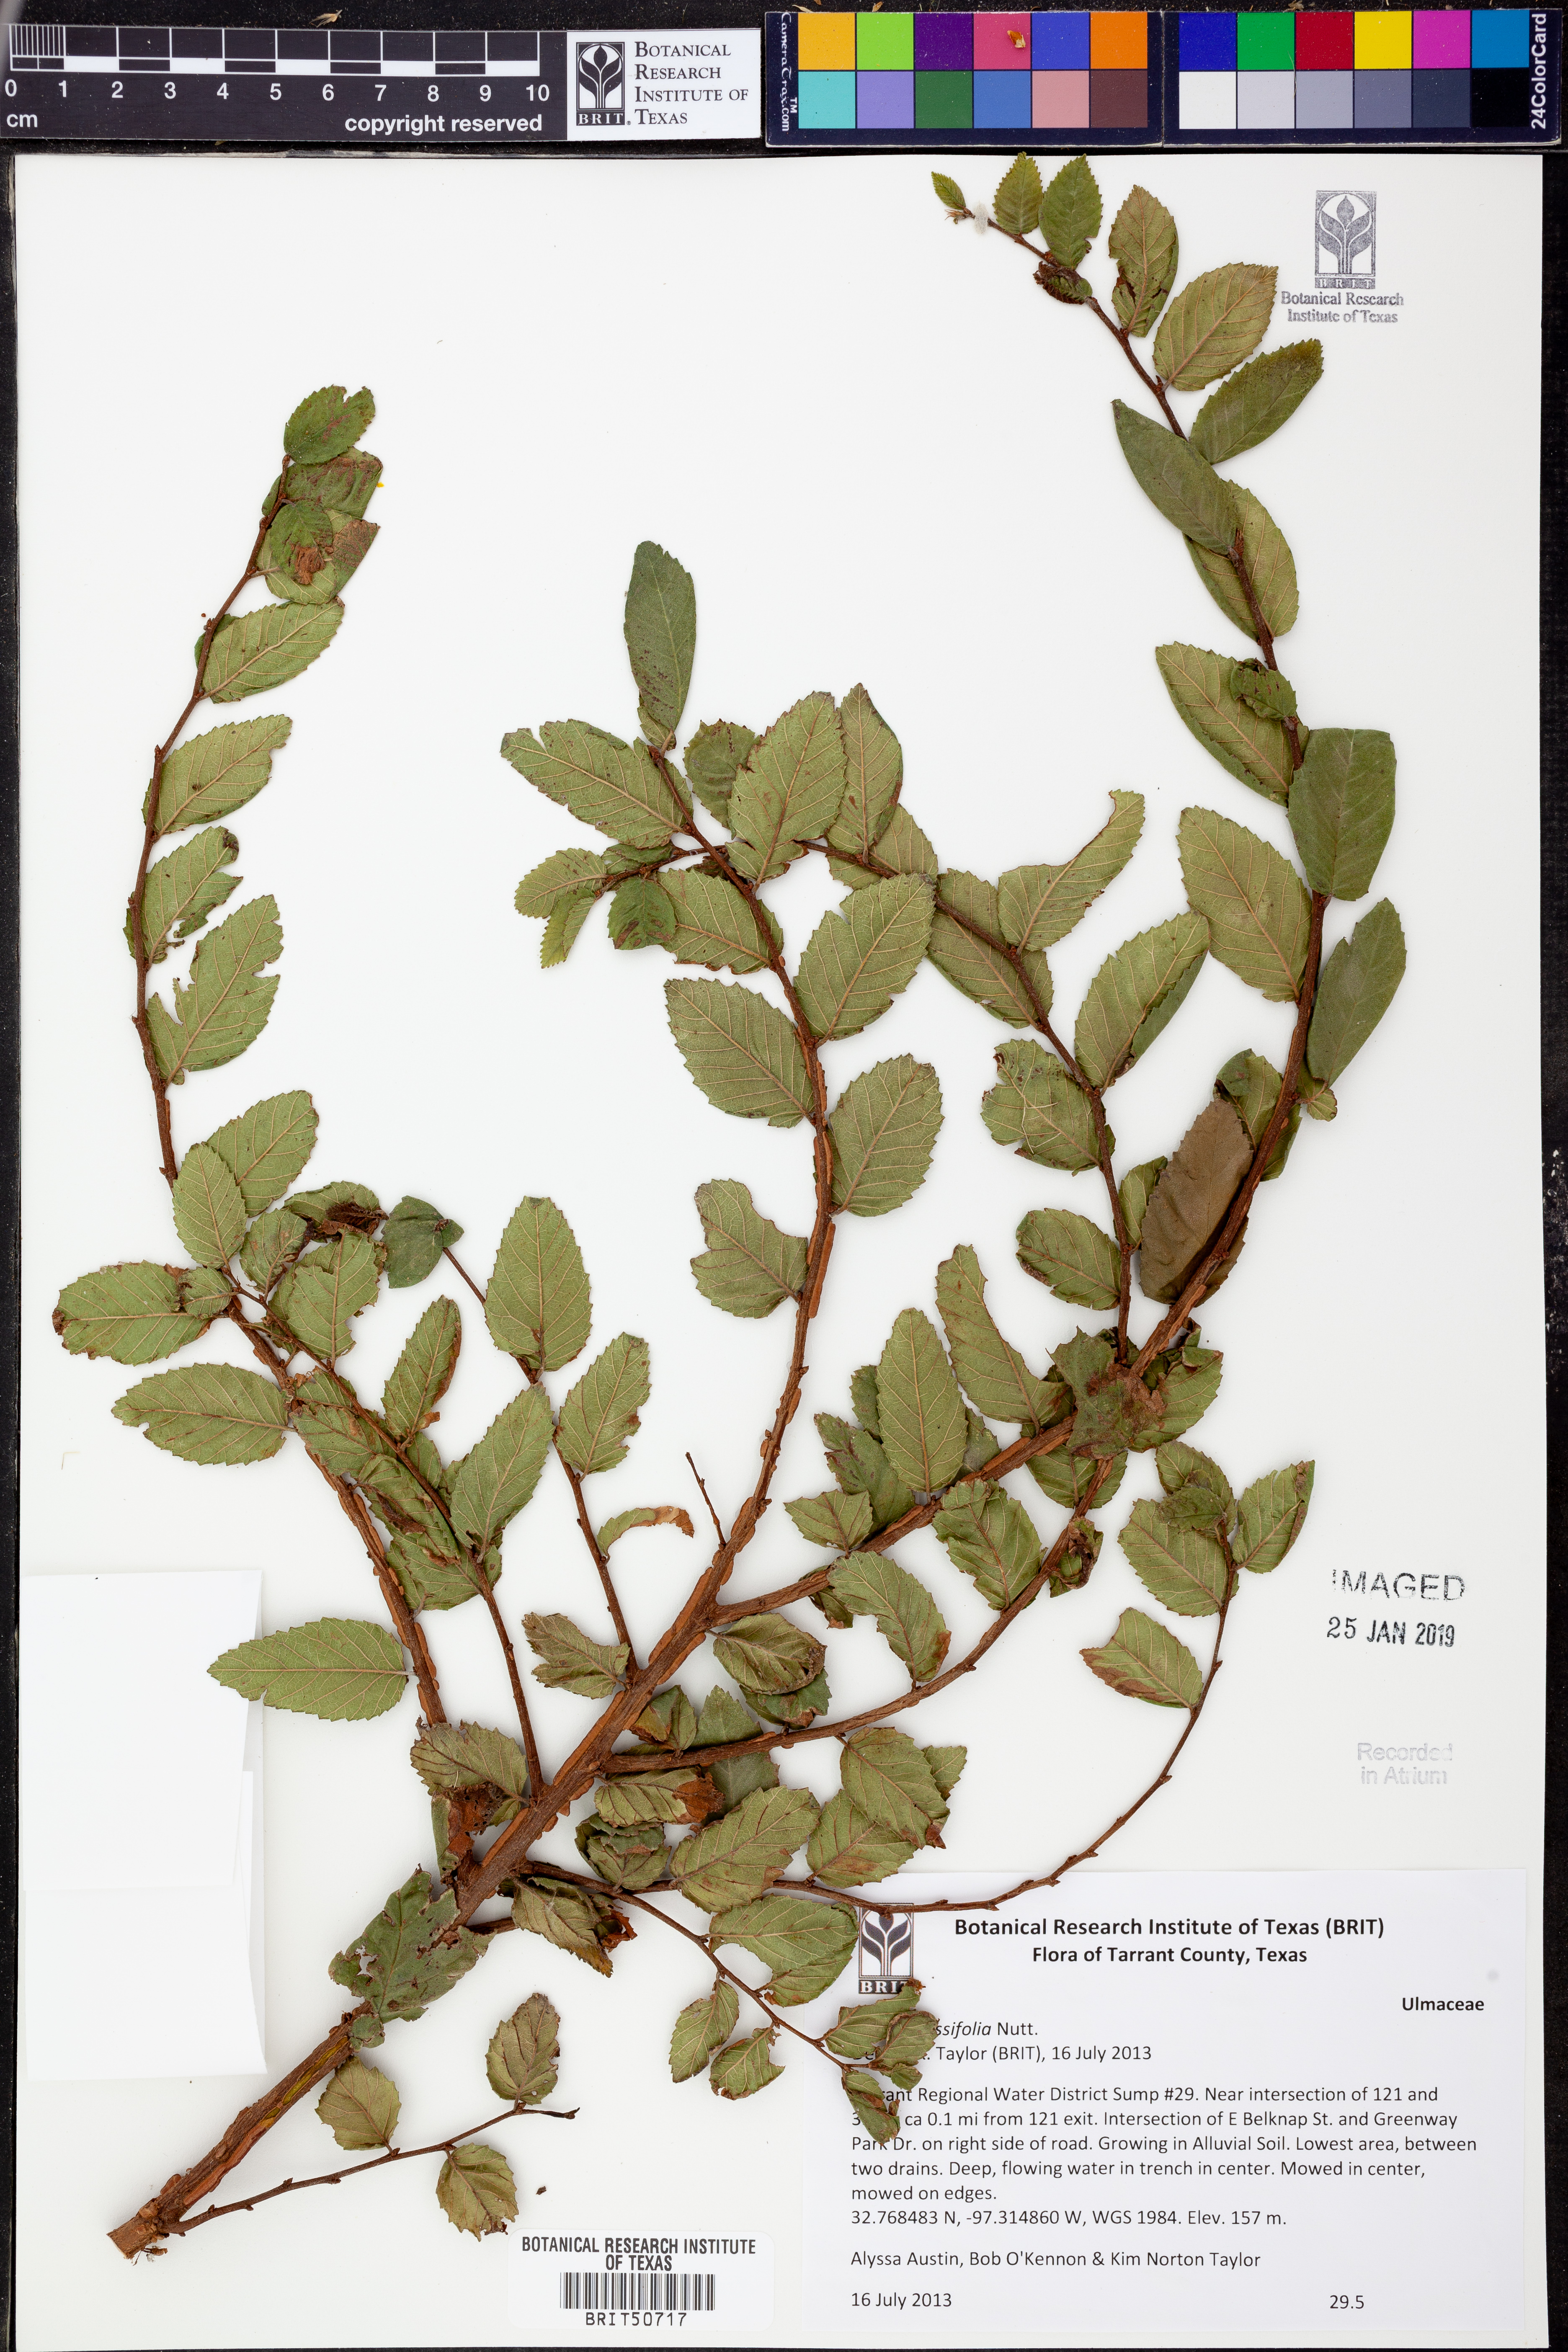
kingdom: Plantae
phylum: Tracheophyta
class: Magnoliopsida
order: Rosales
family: Ulmaceae
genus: Ulmus
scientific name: Ulmus crassifolia
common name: Basket elm
